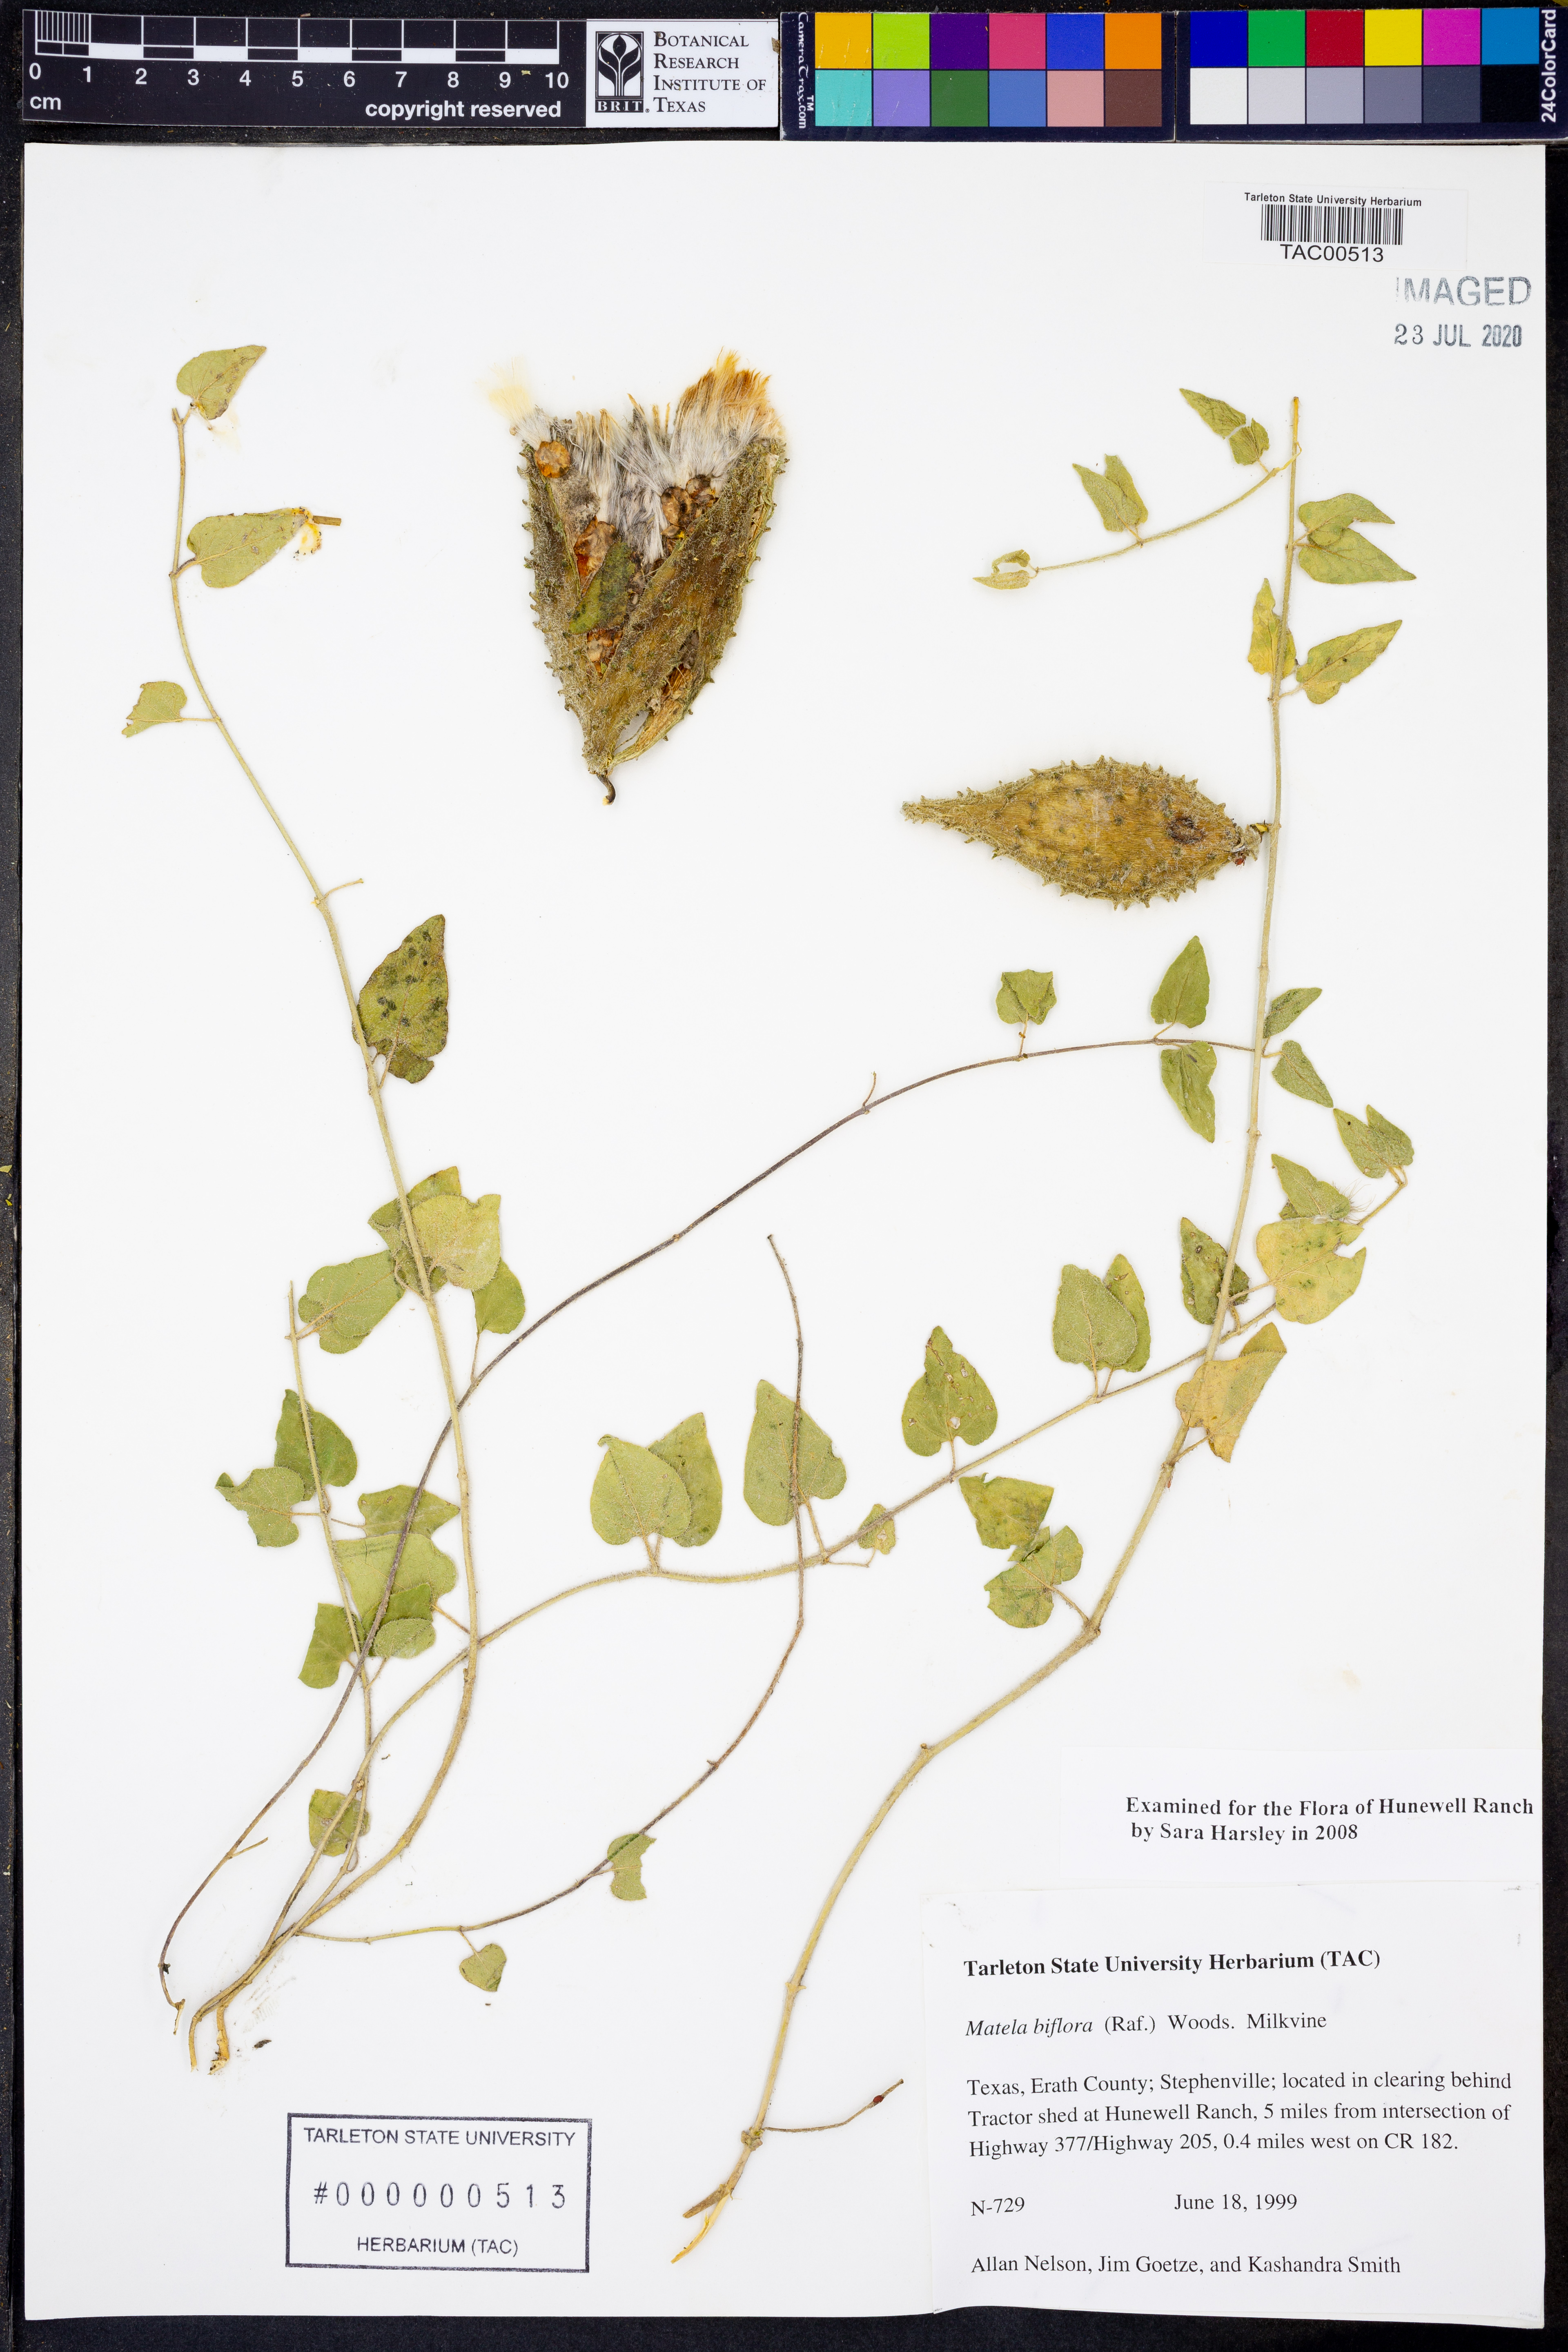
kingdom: Plantae
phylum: Tracheophyta
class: Magnoliopsida
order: Gentianales
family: Apocynaceae
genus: Chthamalia
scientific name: Chthamalia biflora
